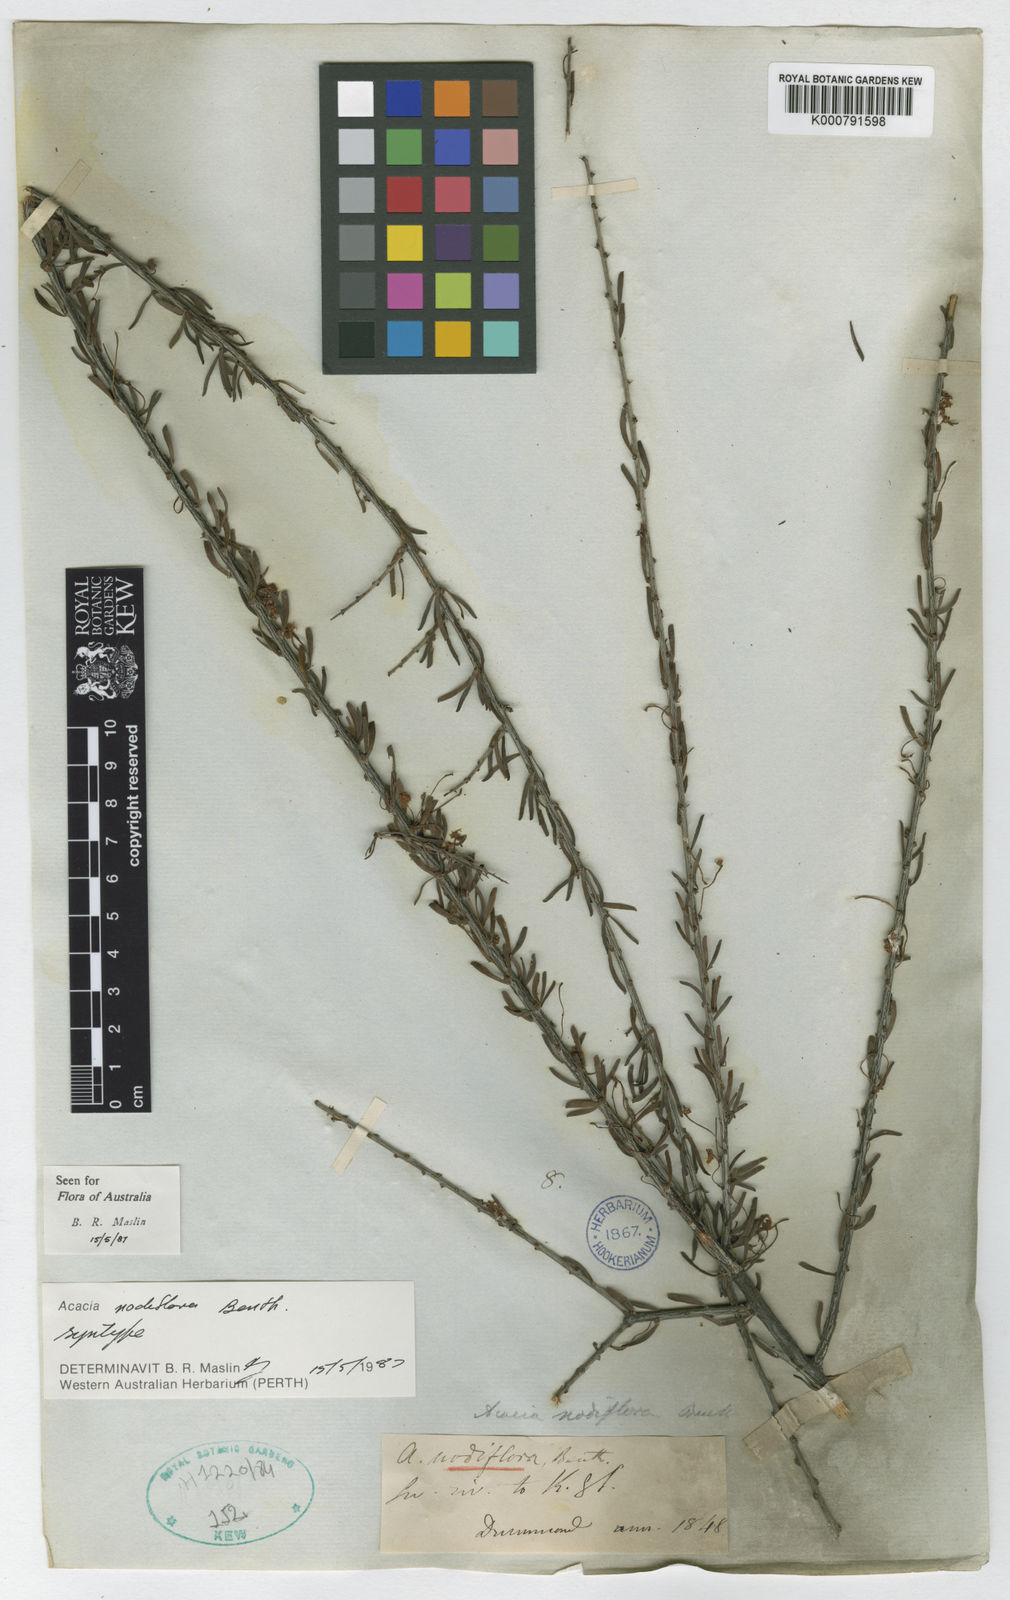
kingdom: Plantae
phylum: Tracheophyta
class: Magnoliopsida
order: Fabales
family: Fabaceae
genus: Acacia
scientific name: Acacia nodiflora
